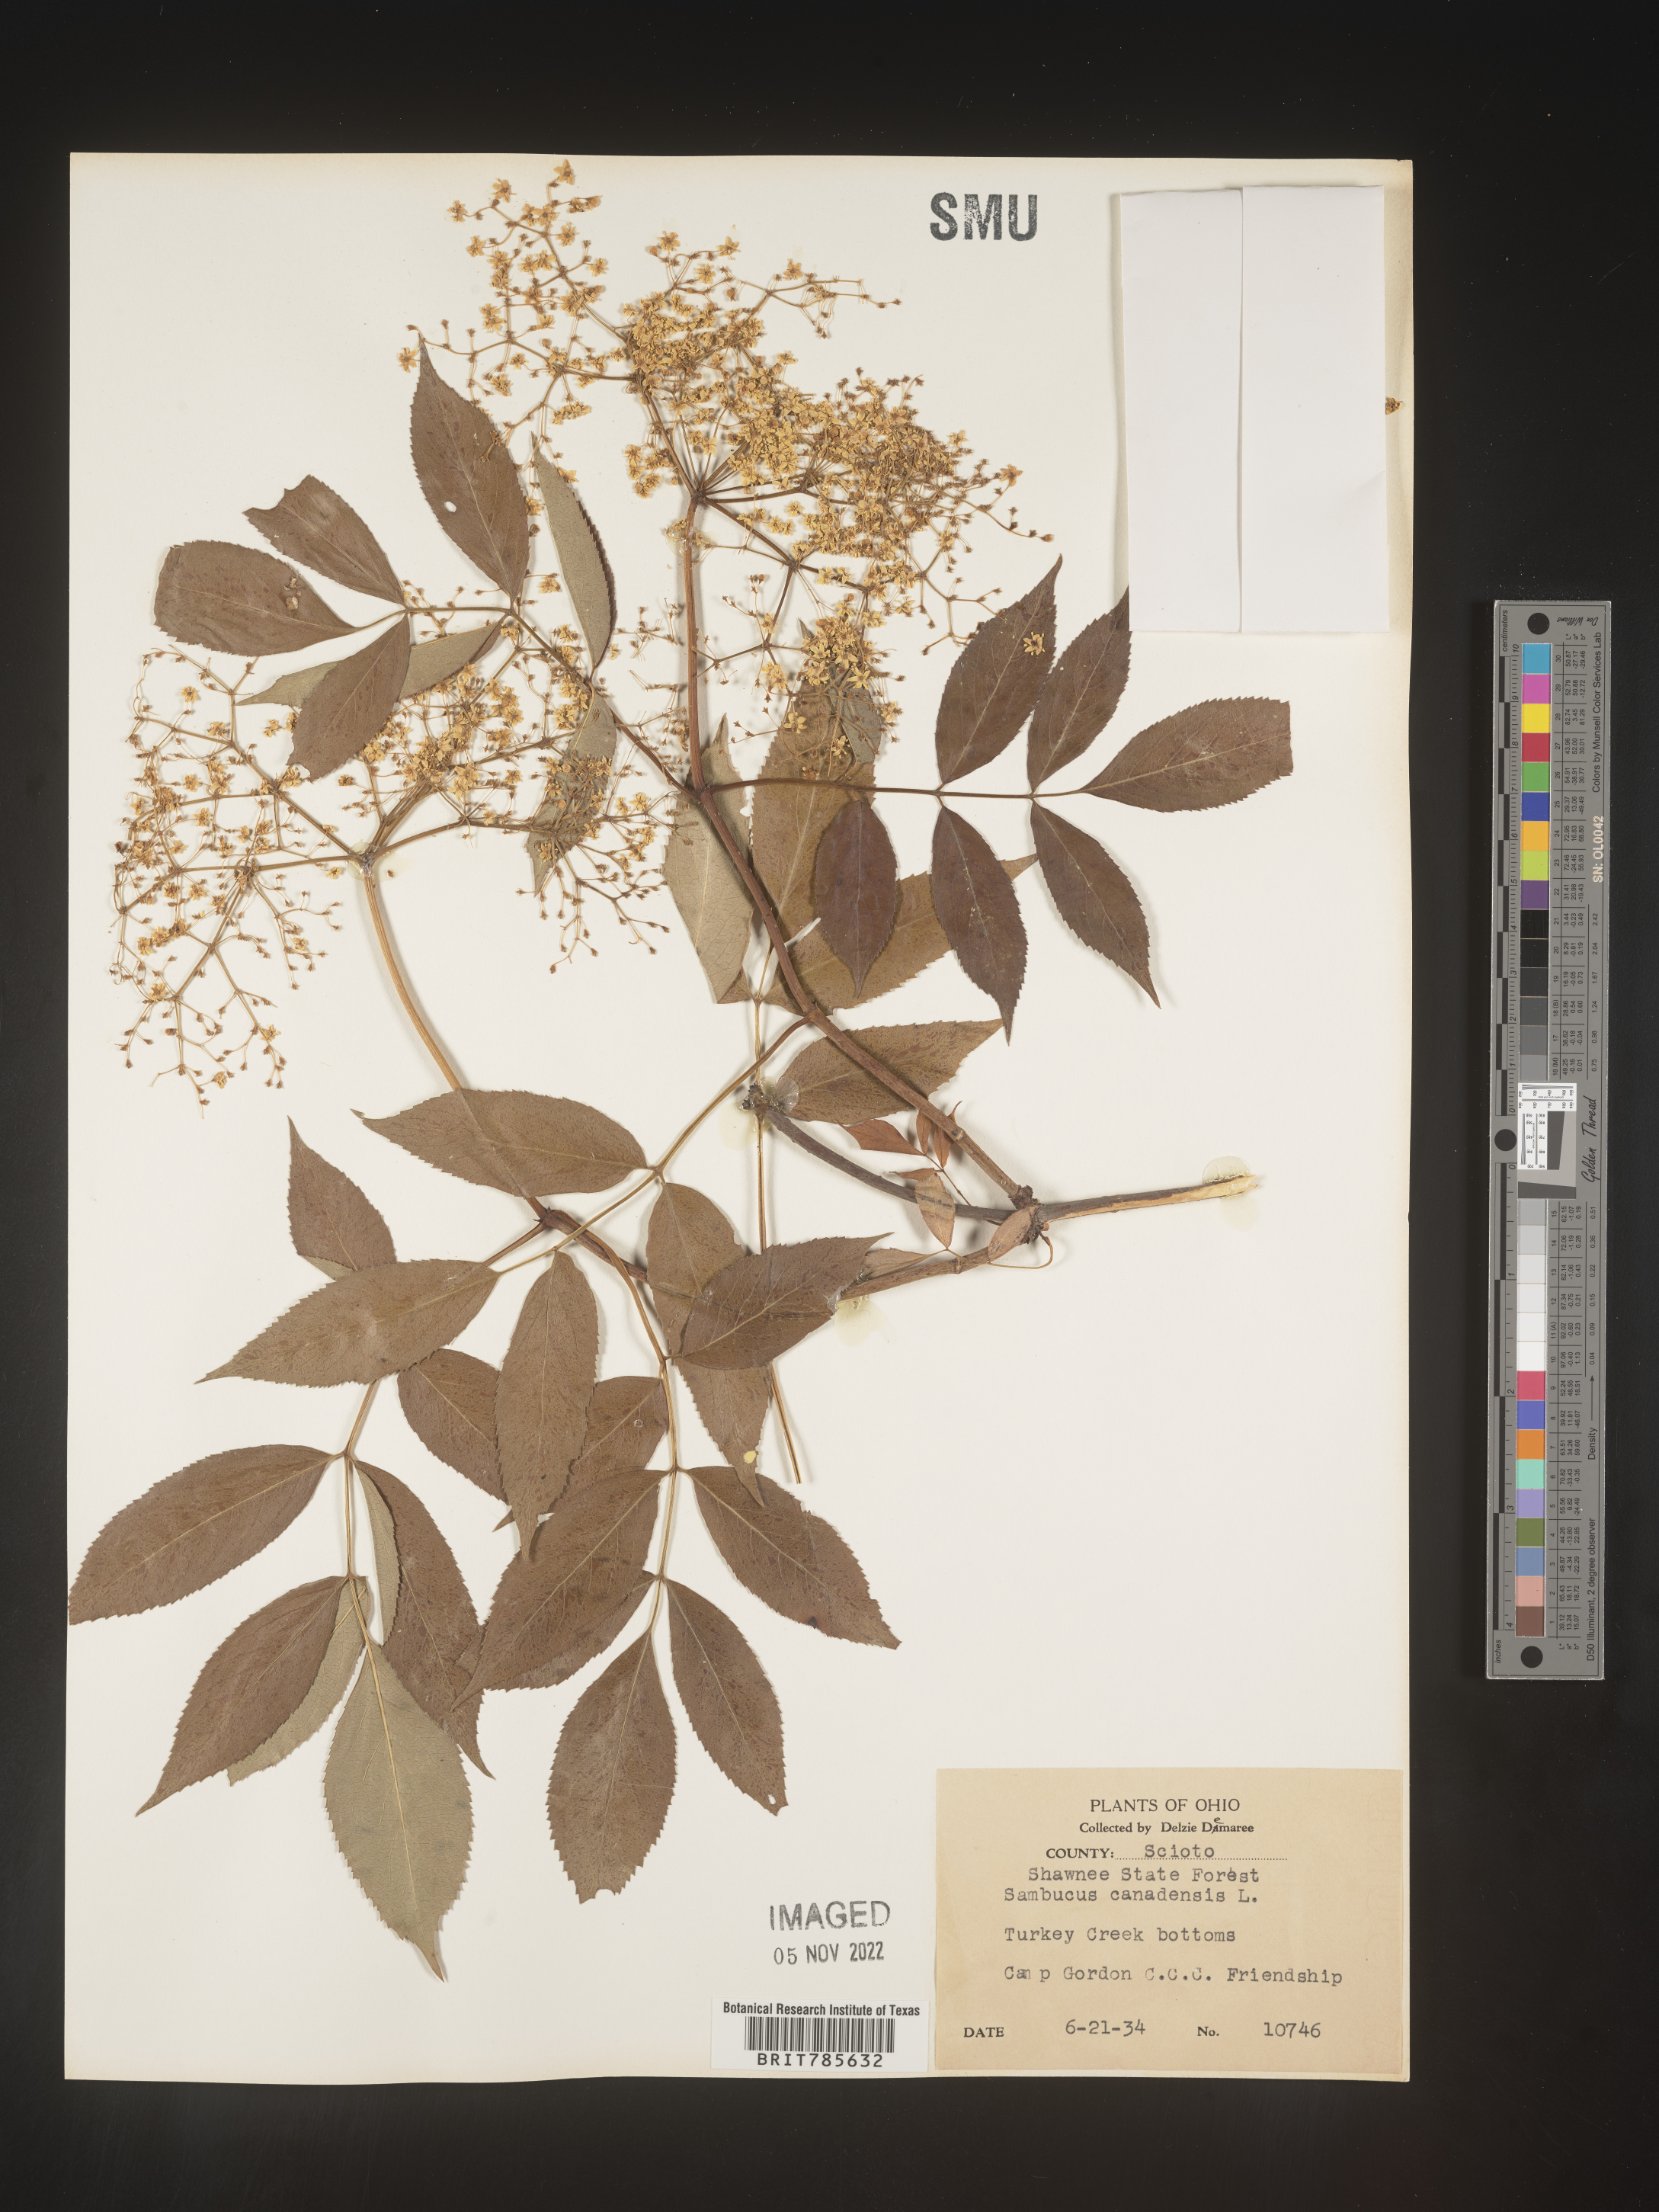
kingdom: Plantae
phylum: Tracheophyta
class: Magnoliopsida
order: Dipsacales
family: Viburnaceae
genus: Sambucus
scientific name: Sambucus canadensis
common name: American elder
